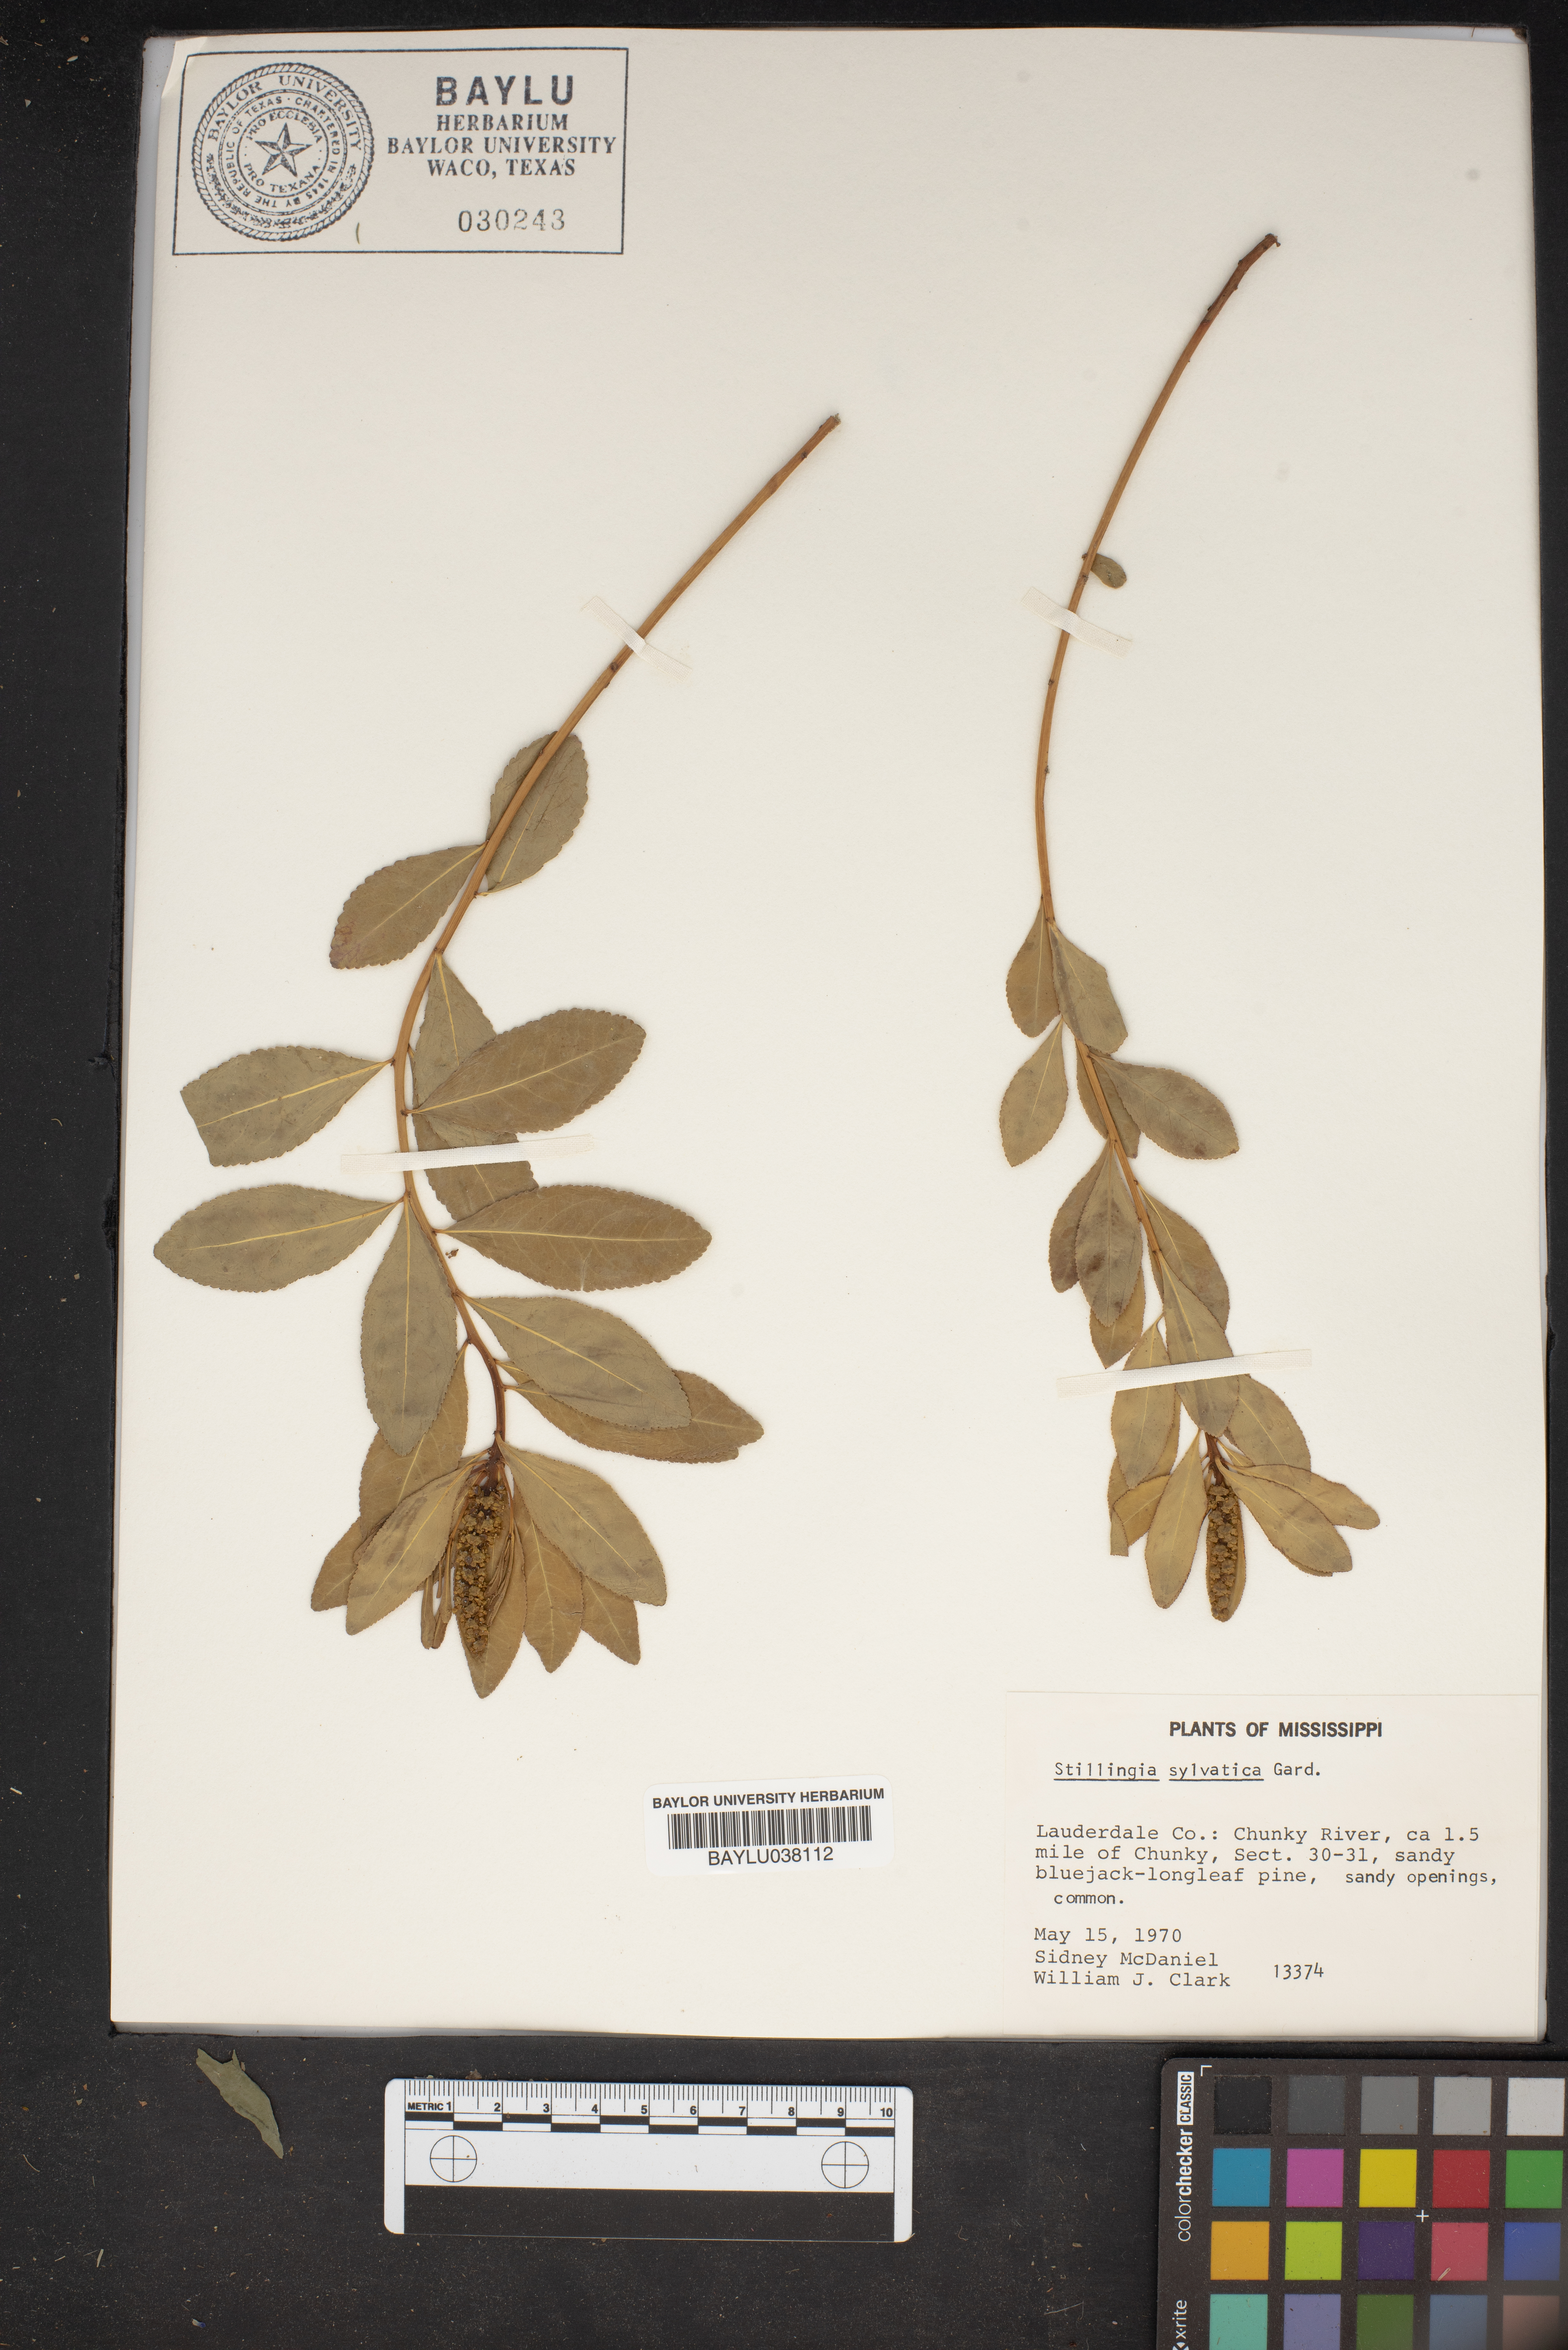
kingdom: Plantae
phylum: Tracheophyta
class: Magnoliopsida
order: Malpighiales
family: Euphorbiaceae
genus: Stillingia
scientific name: Stillingia sylvatica
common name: Queen's-delight
